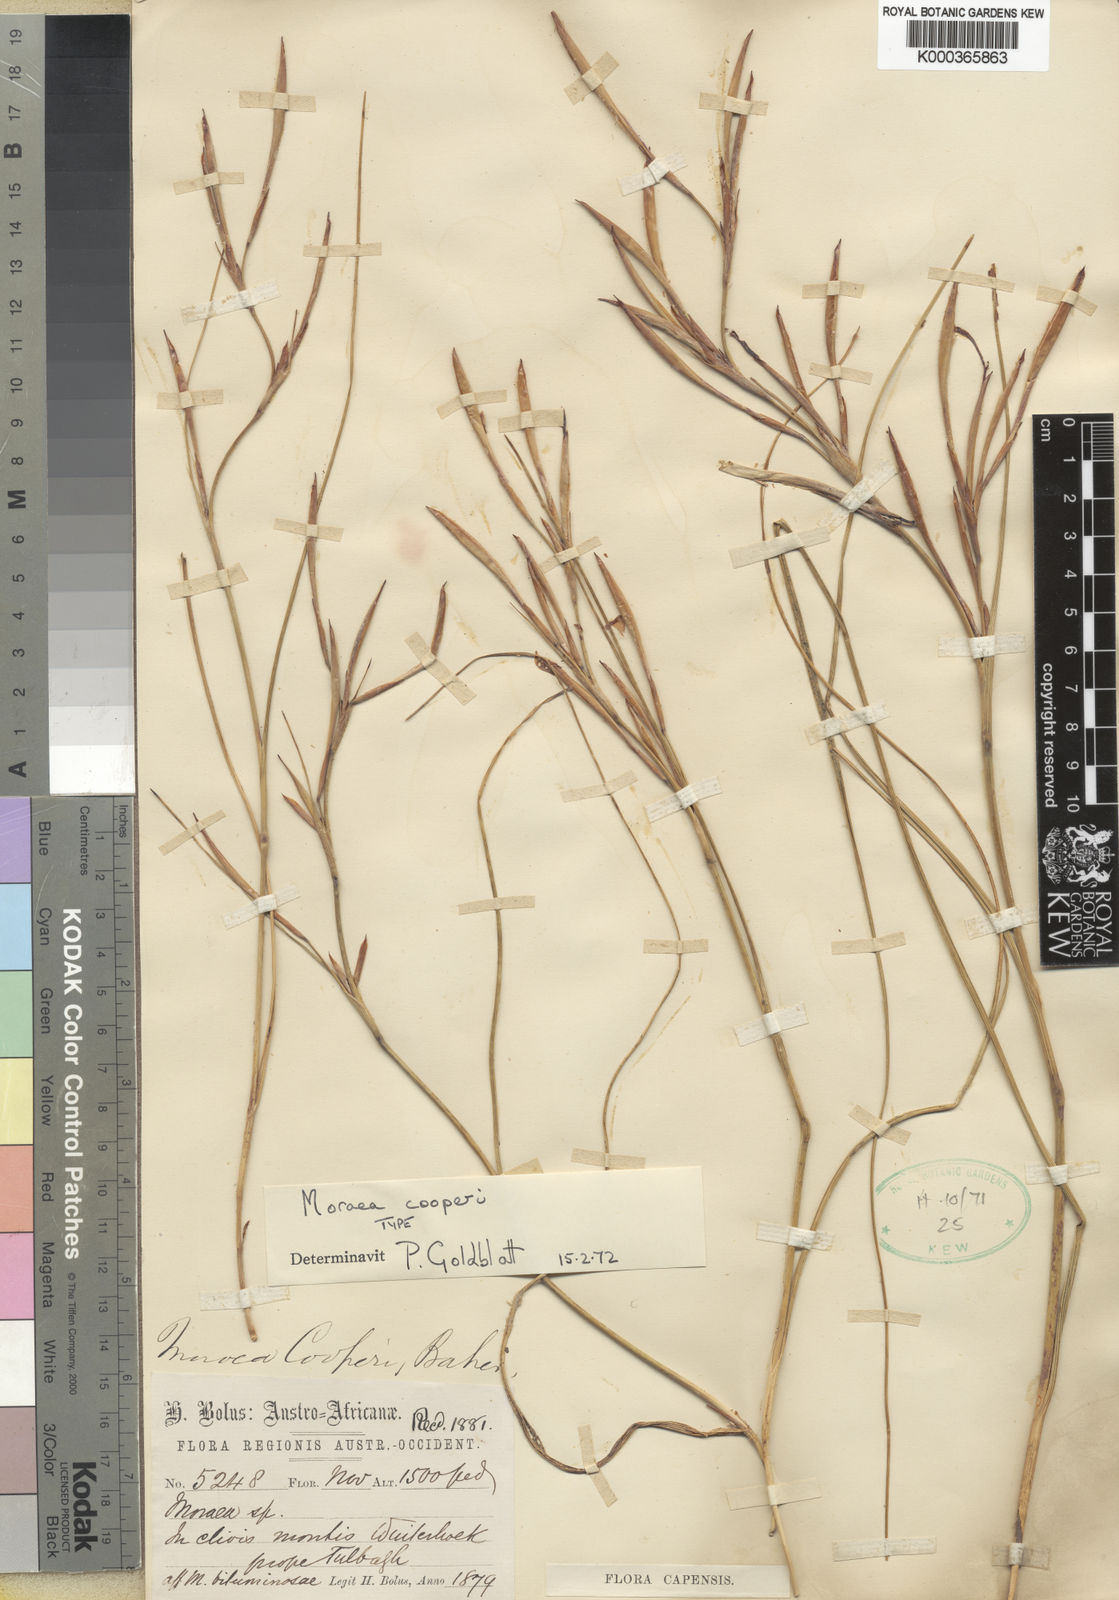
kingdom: Plantae
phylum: Tracheophyta
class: Liliopsida
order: Asparagales
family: Iridaceae
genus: Moraea
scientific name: Moraea cooperi
